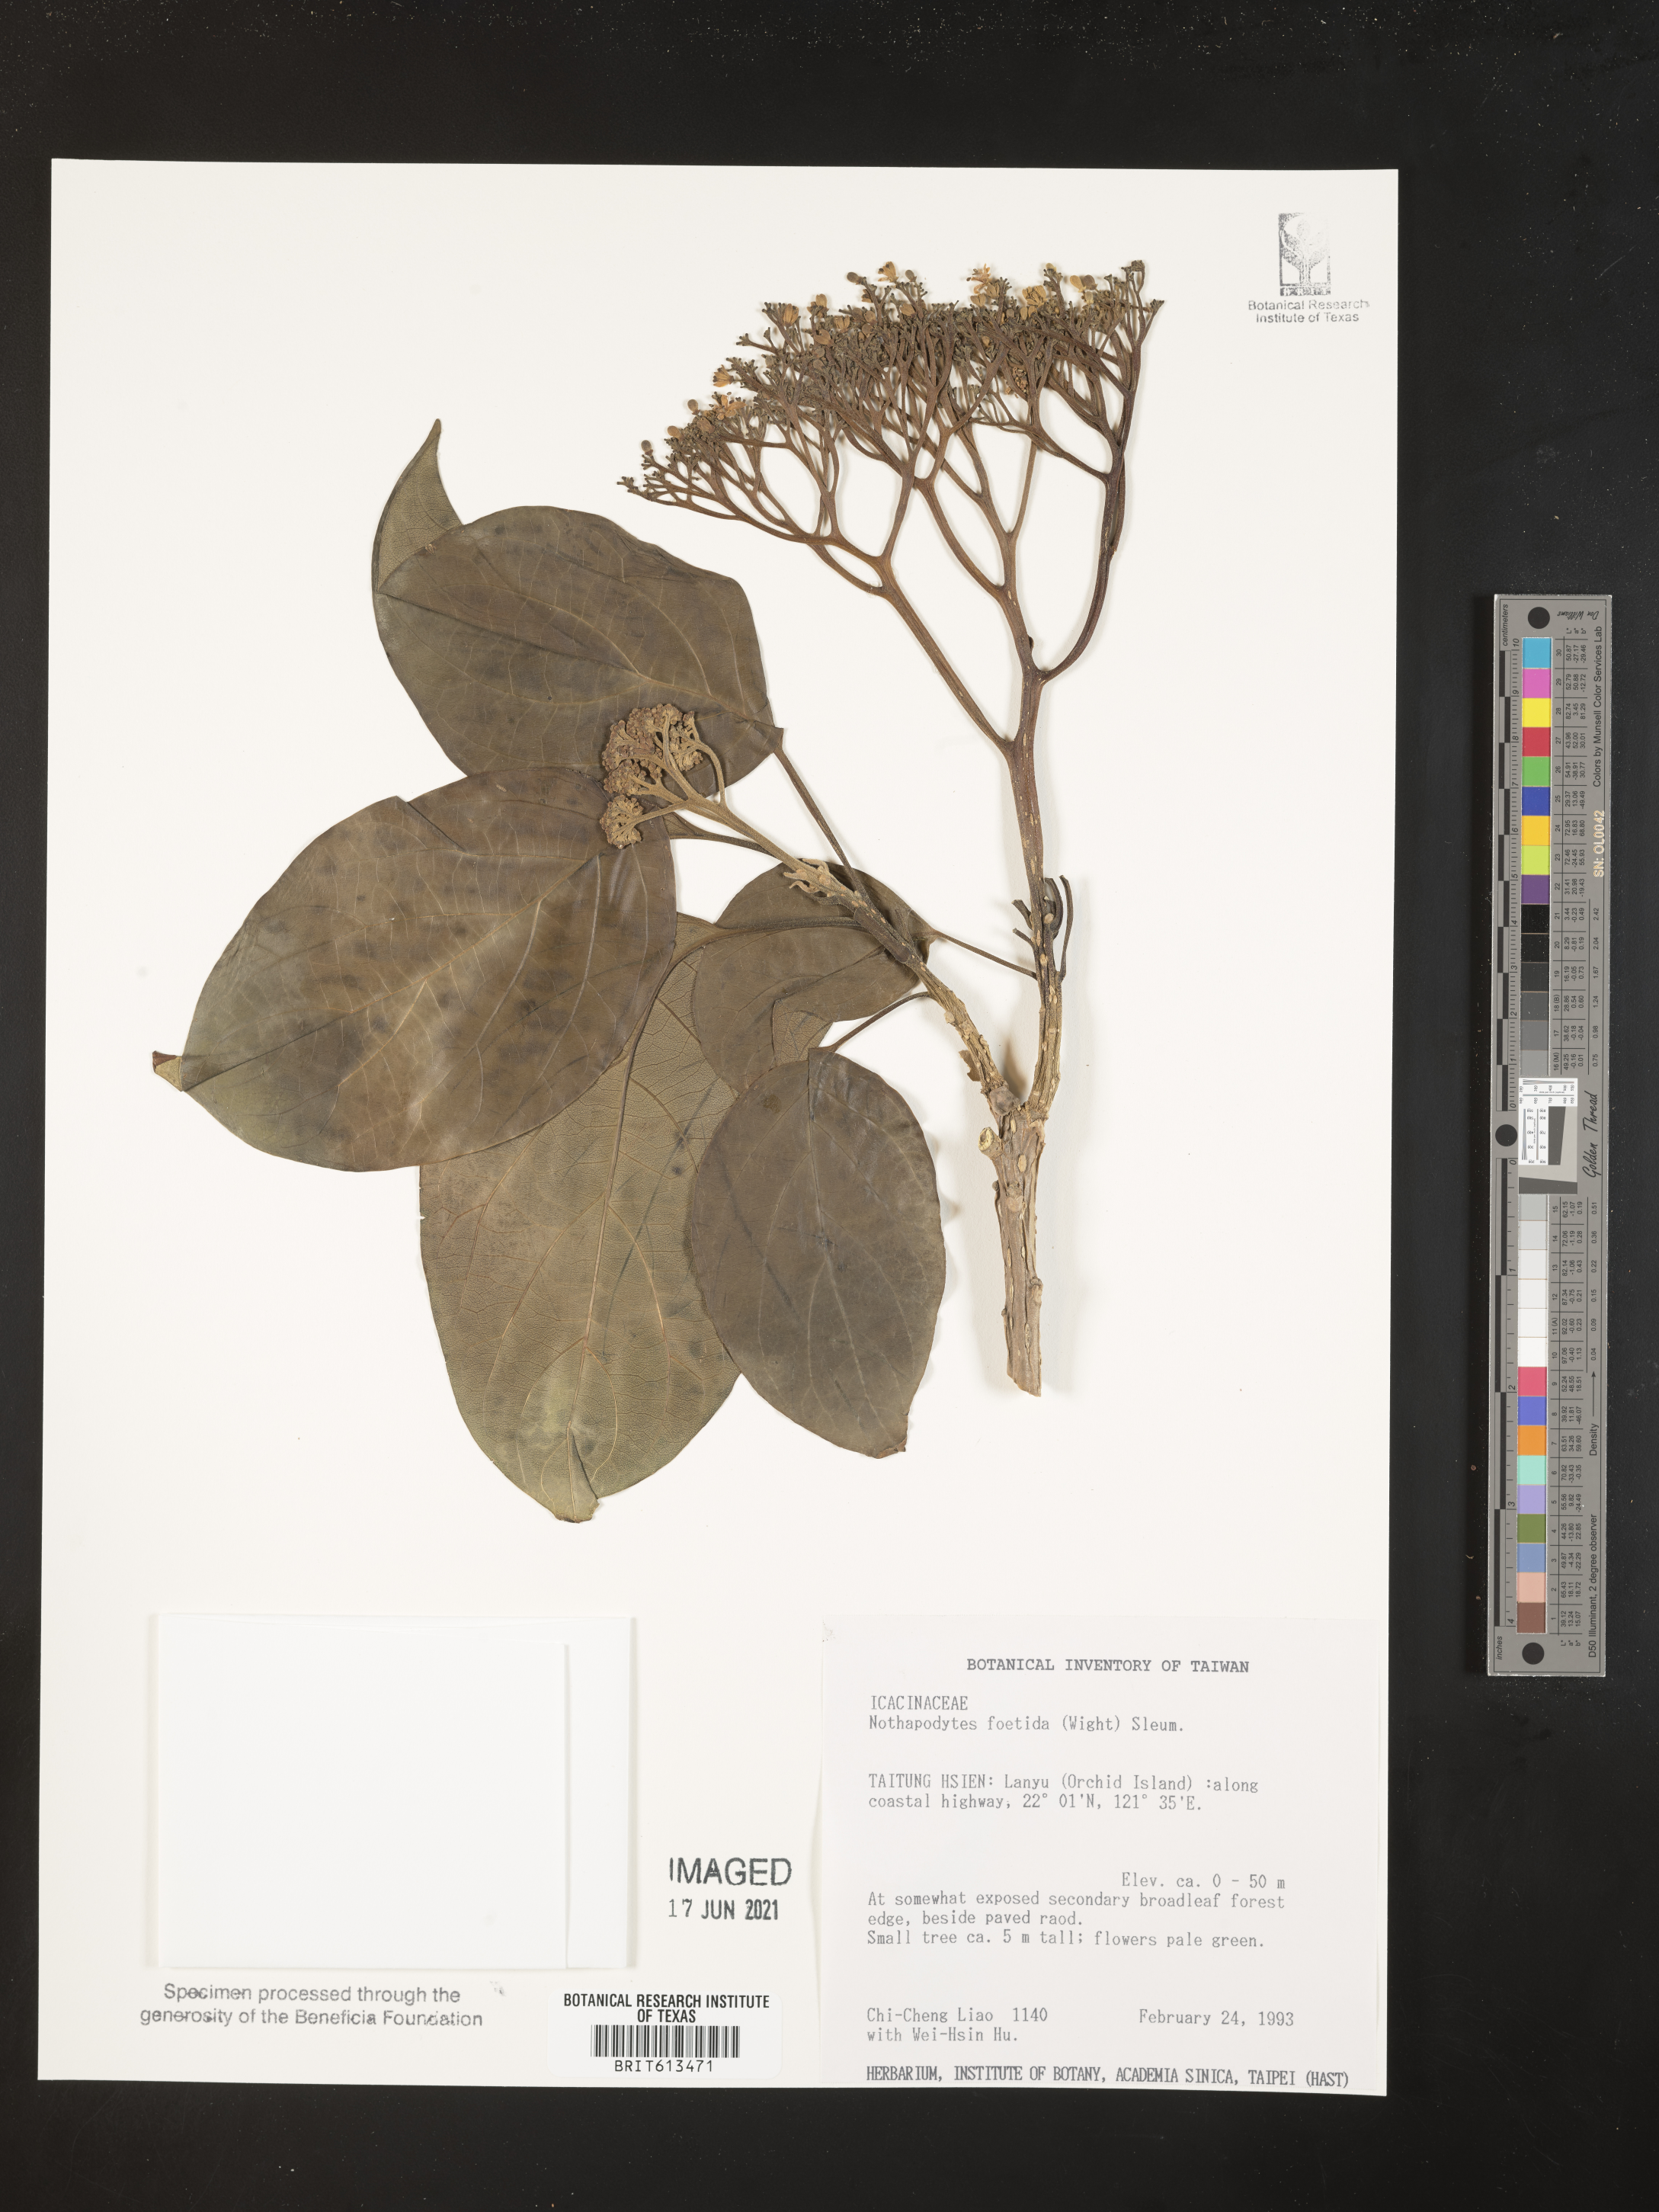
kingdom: Plantae
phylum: Tracheophyta
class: Magnoliopsida
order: Icacinales
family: Icacinaceae
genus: Nothapodytes
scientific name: Nothapodytes nimmoniana
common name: Nothapodytes
